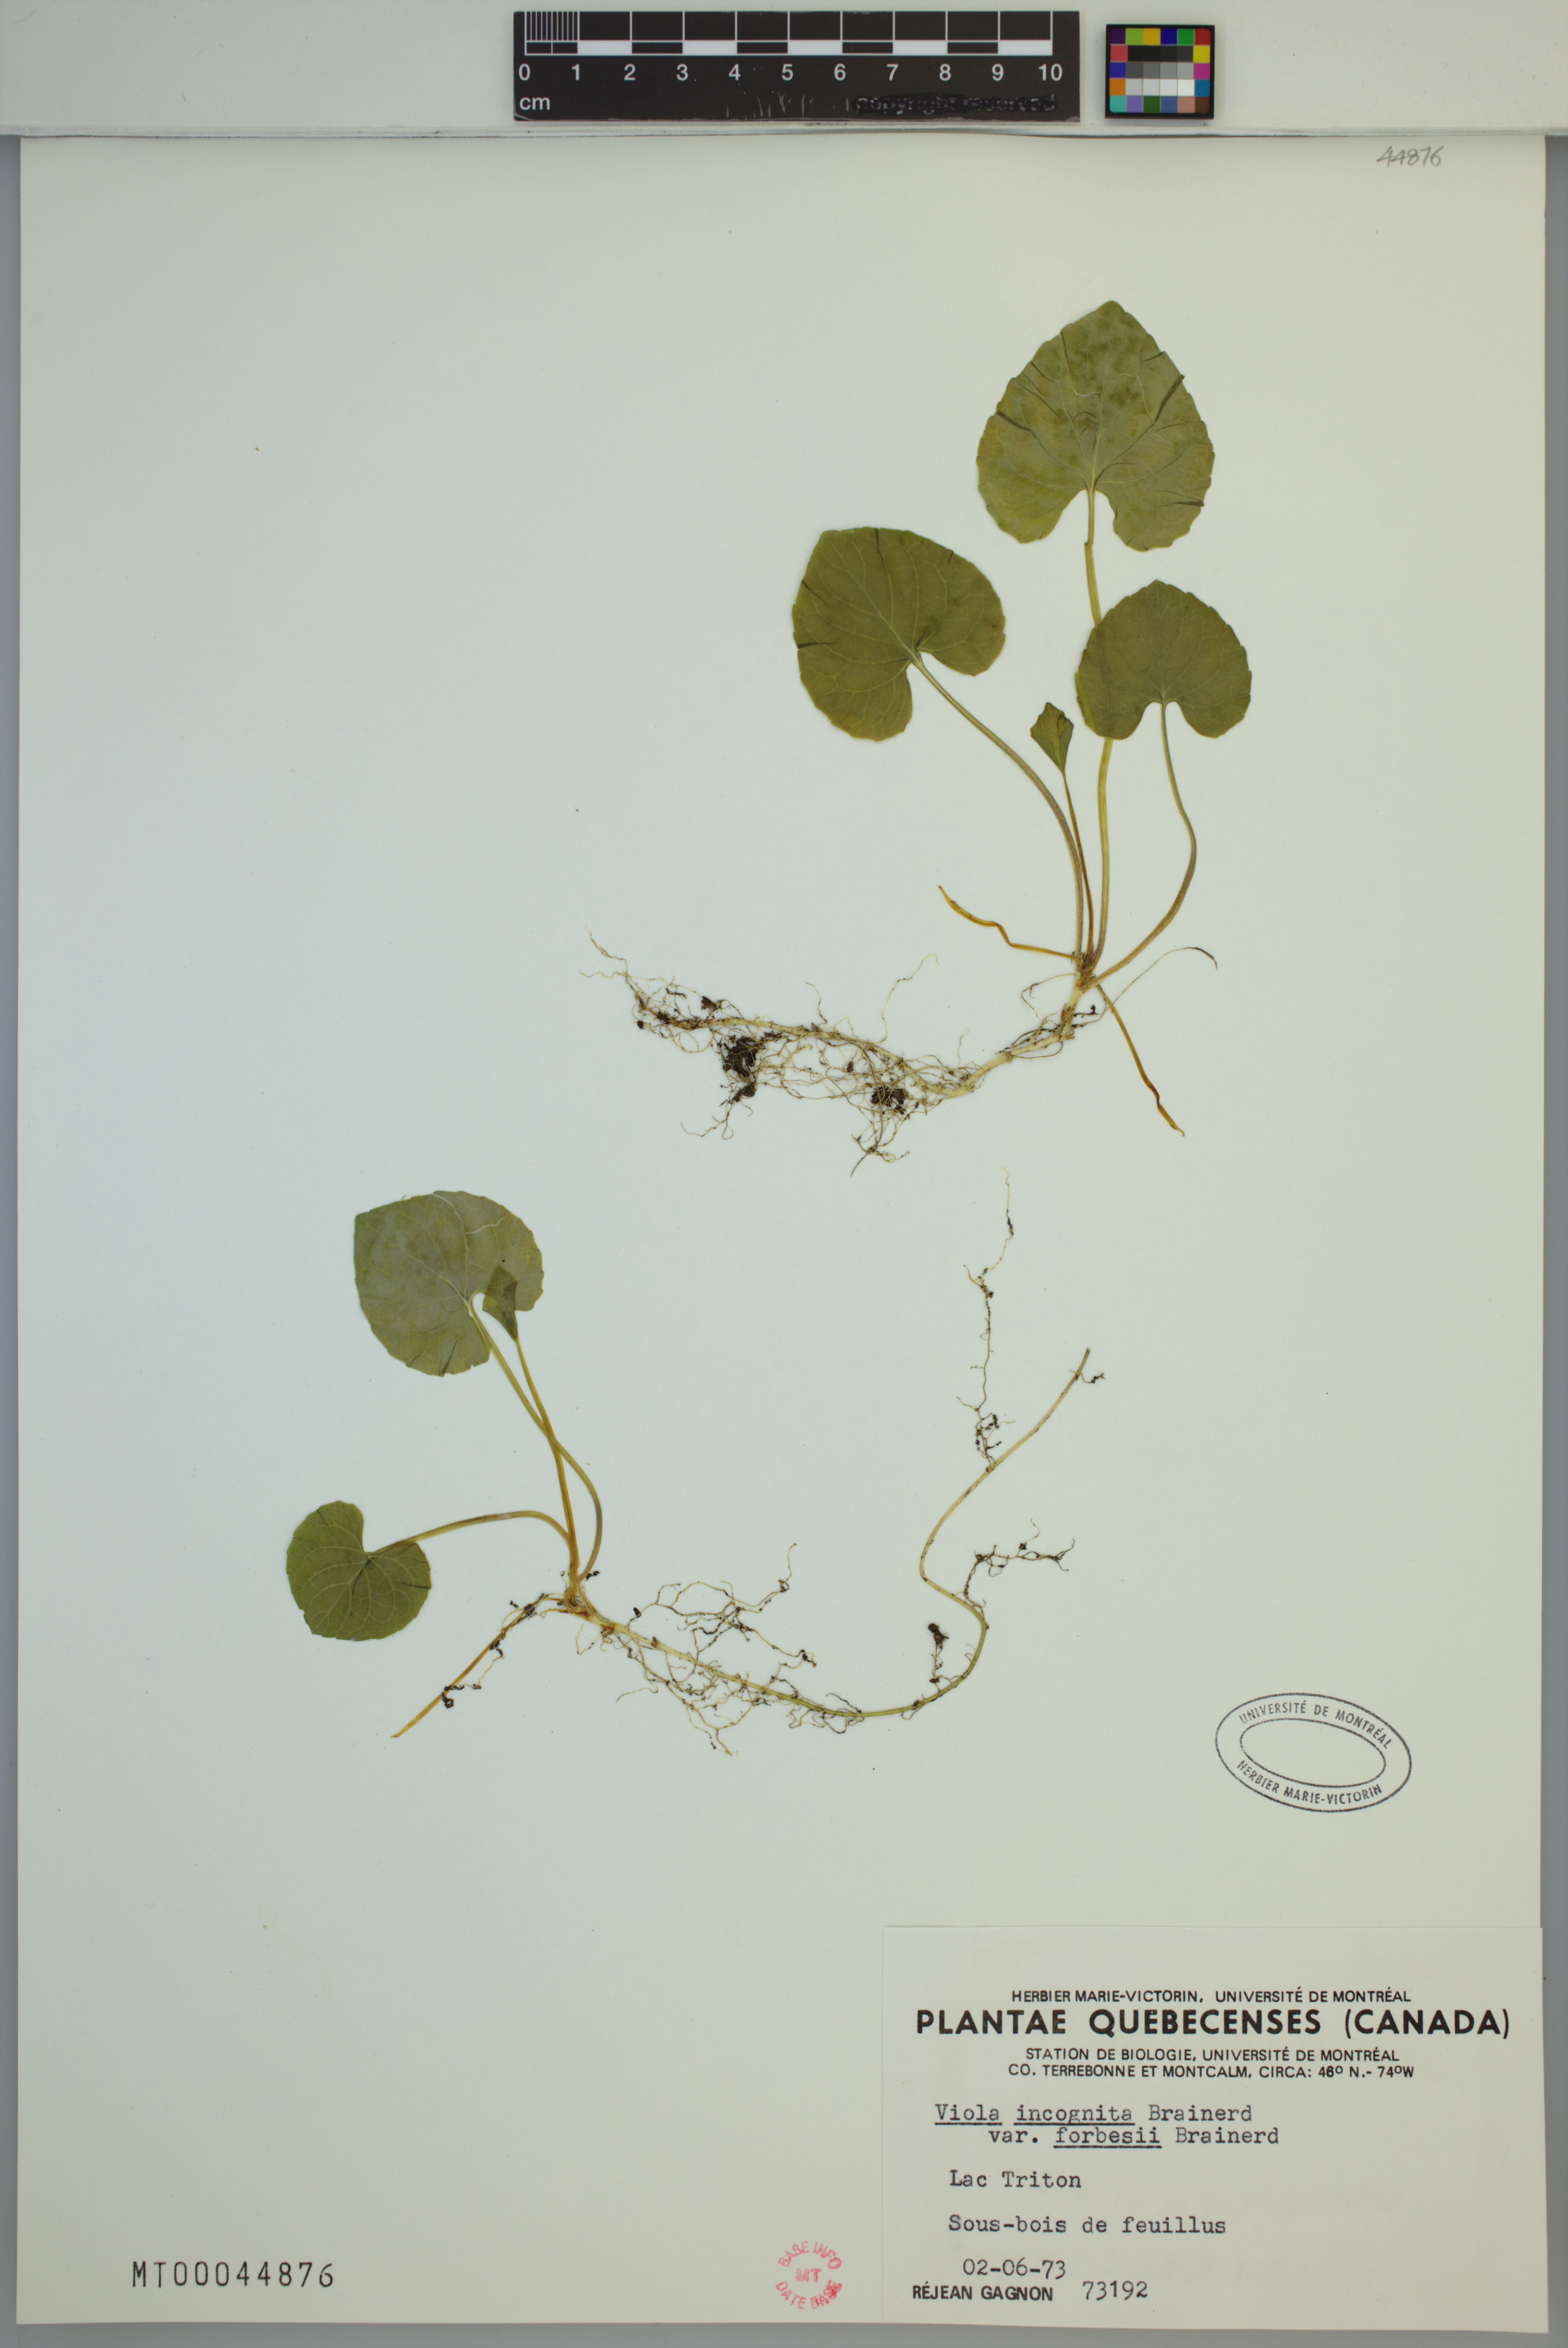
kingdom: Plantae
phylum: Tracheophyta
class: Magnoliopsida
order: Malpighiales
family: Violaceae
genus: Viola
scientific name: Viola blanda
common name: Sweet white violet
